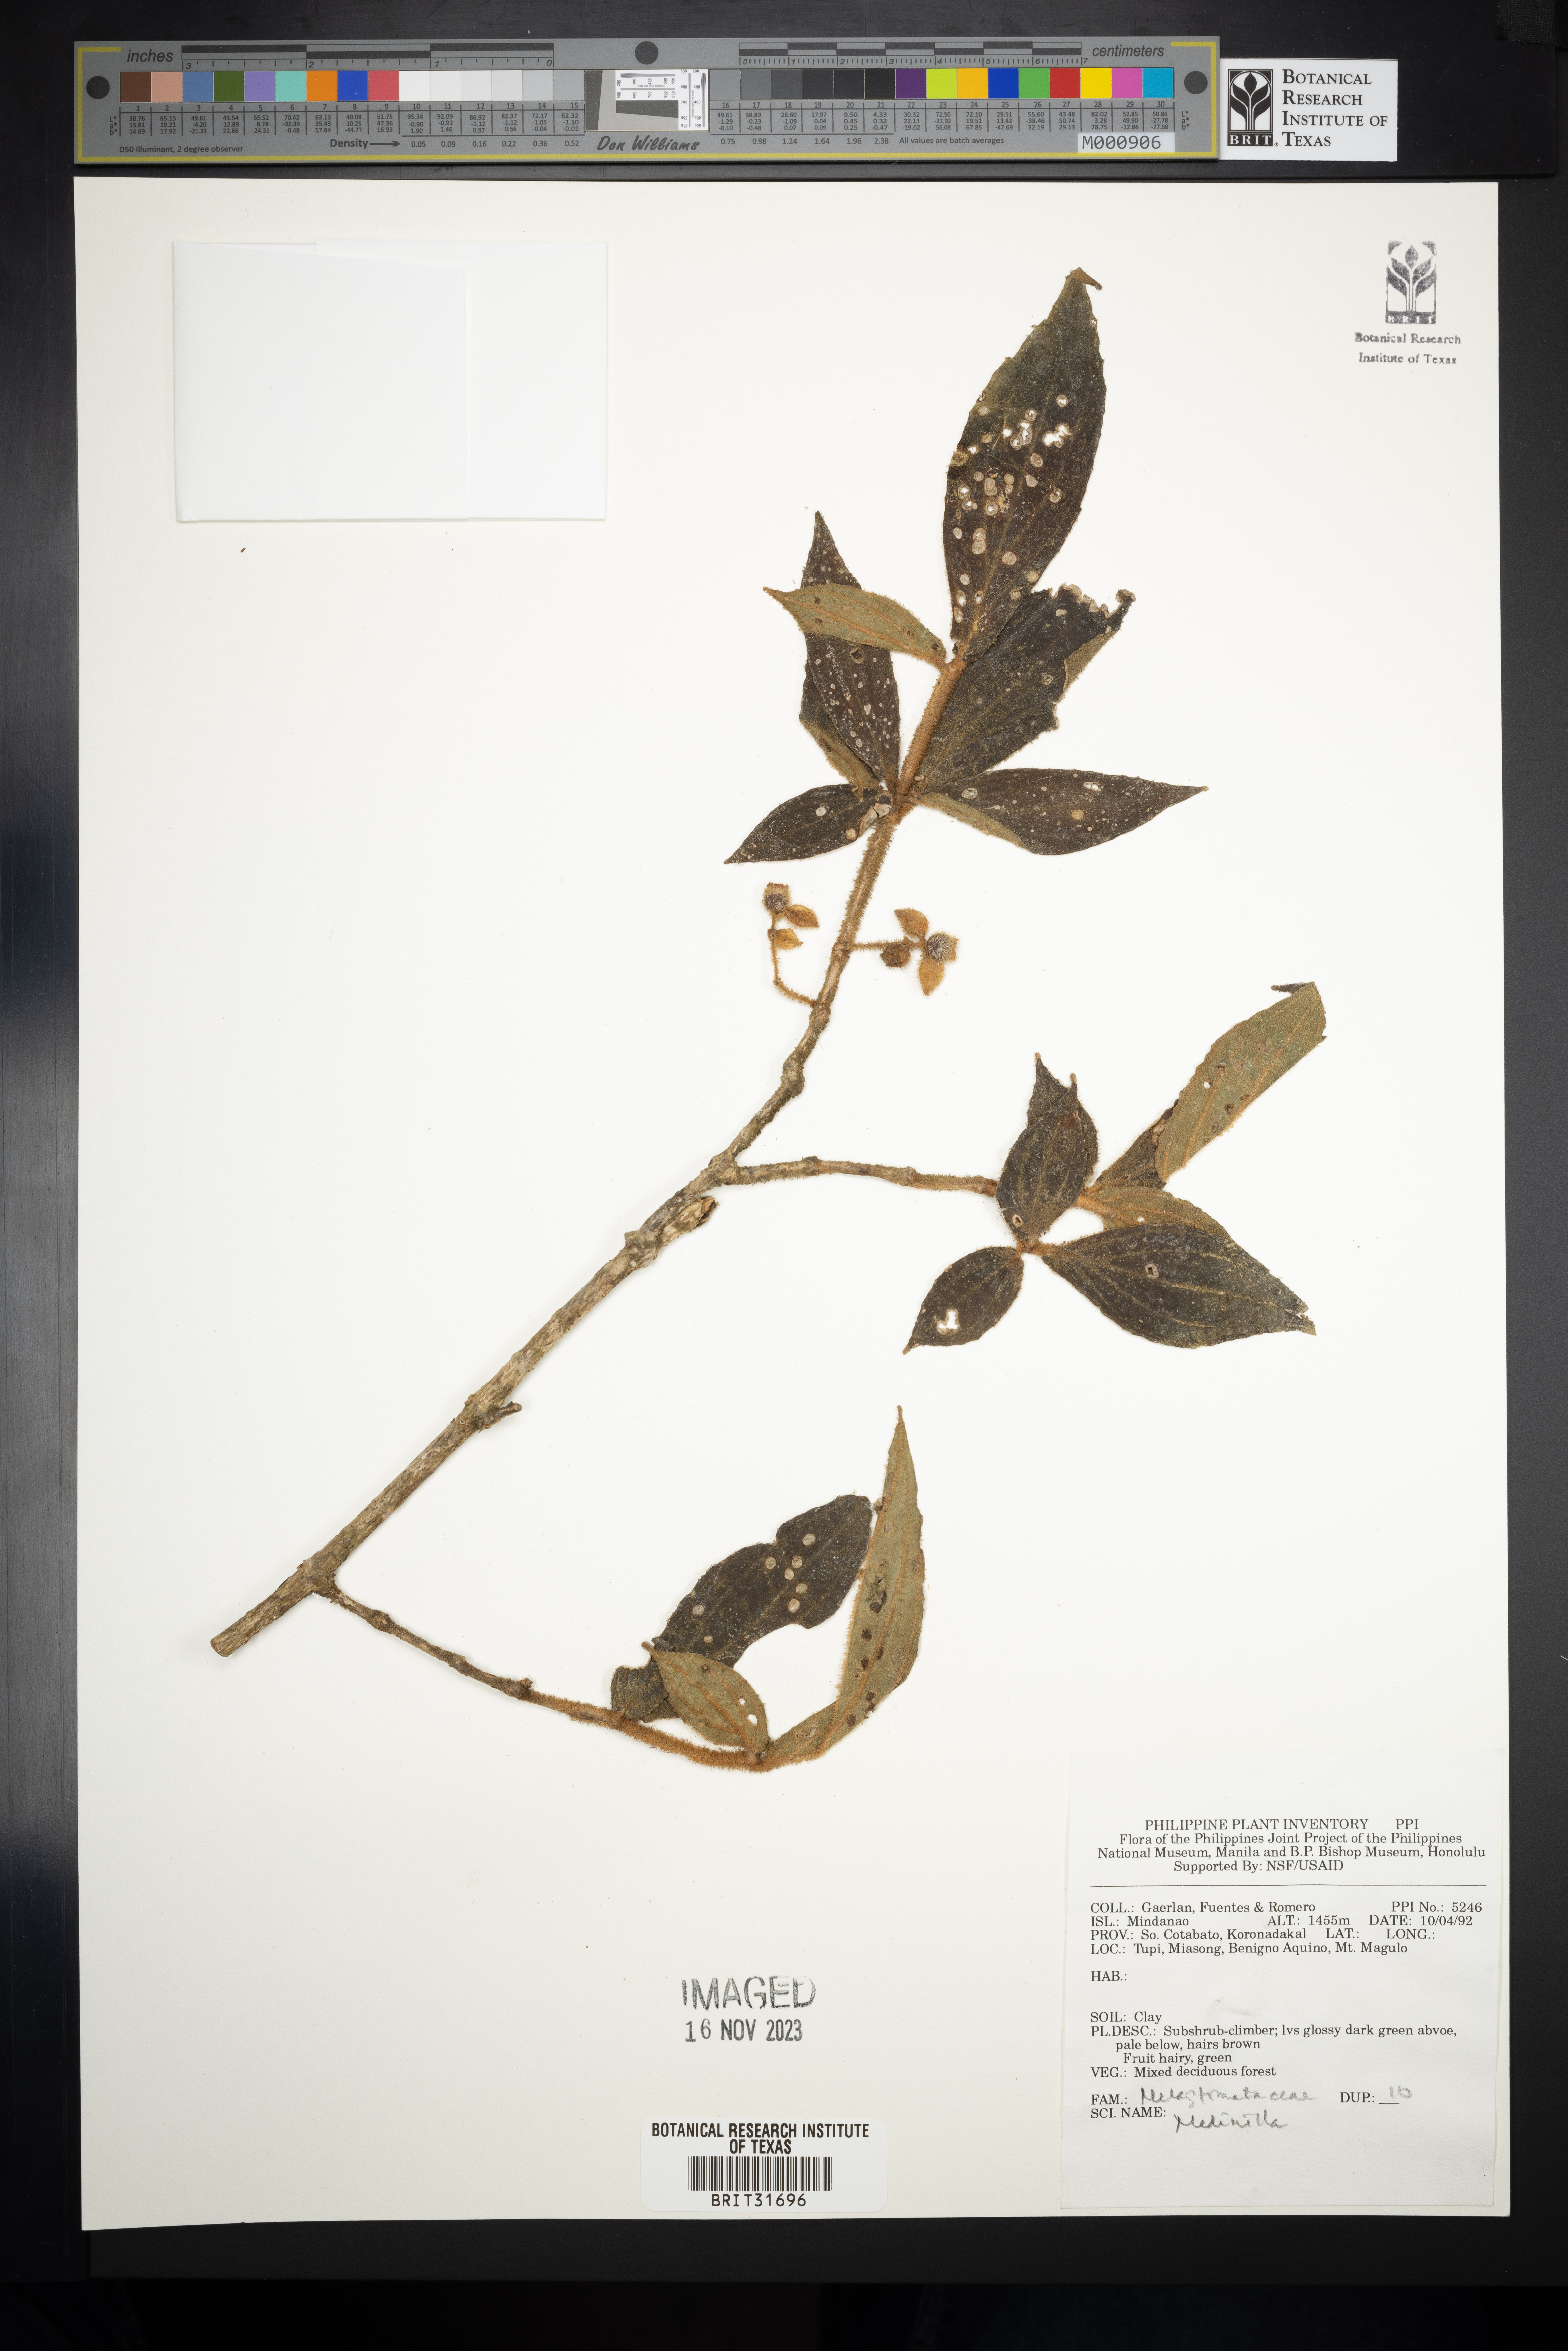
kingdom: Plantae
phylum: Tracheophyta
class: Magnoliopsida
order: Myrtales
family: Melastomataceae
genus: Medinilla
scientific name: Medinilla
